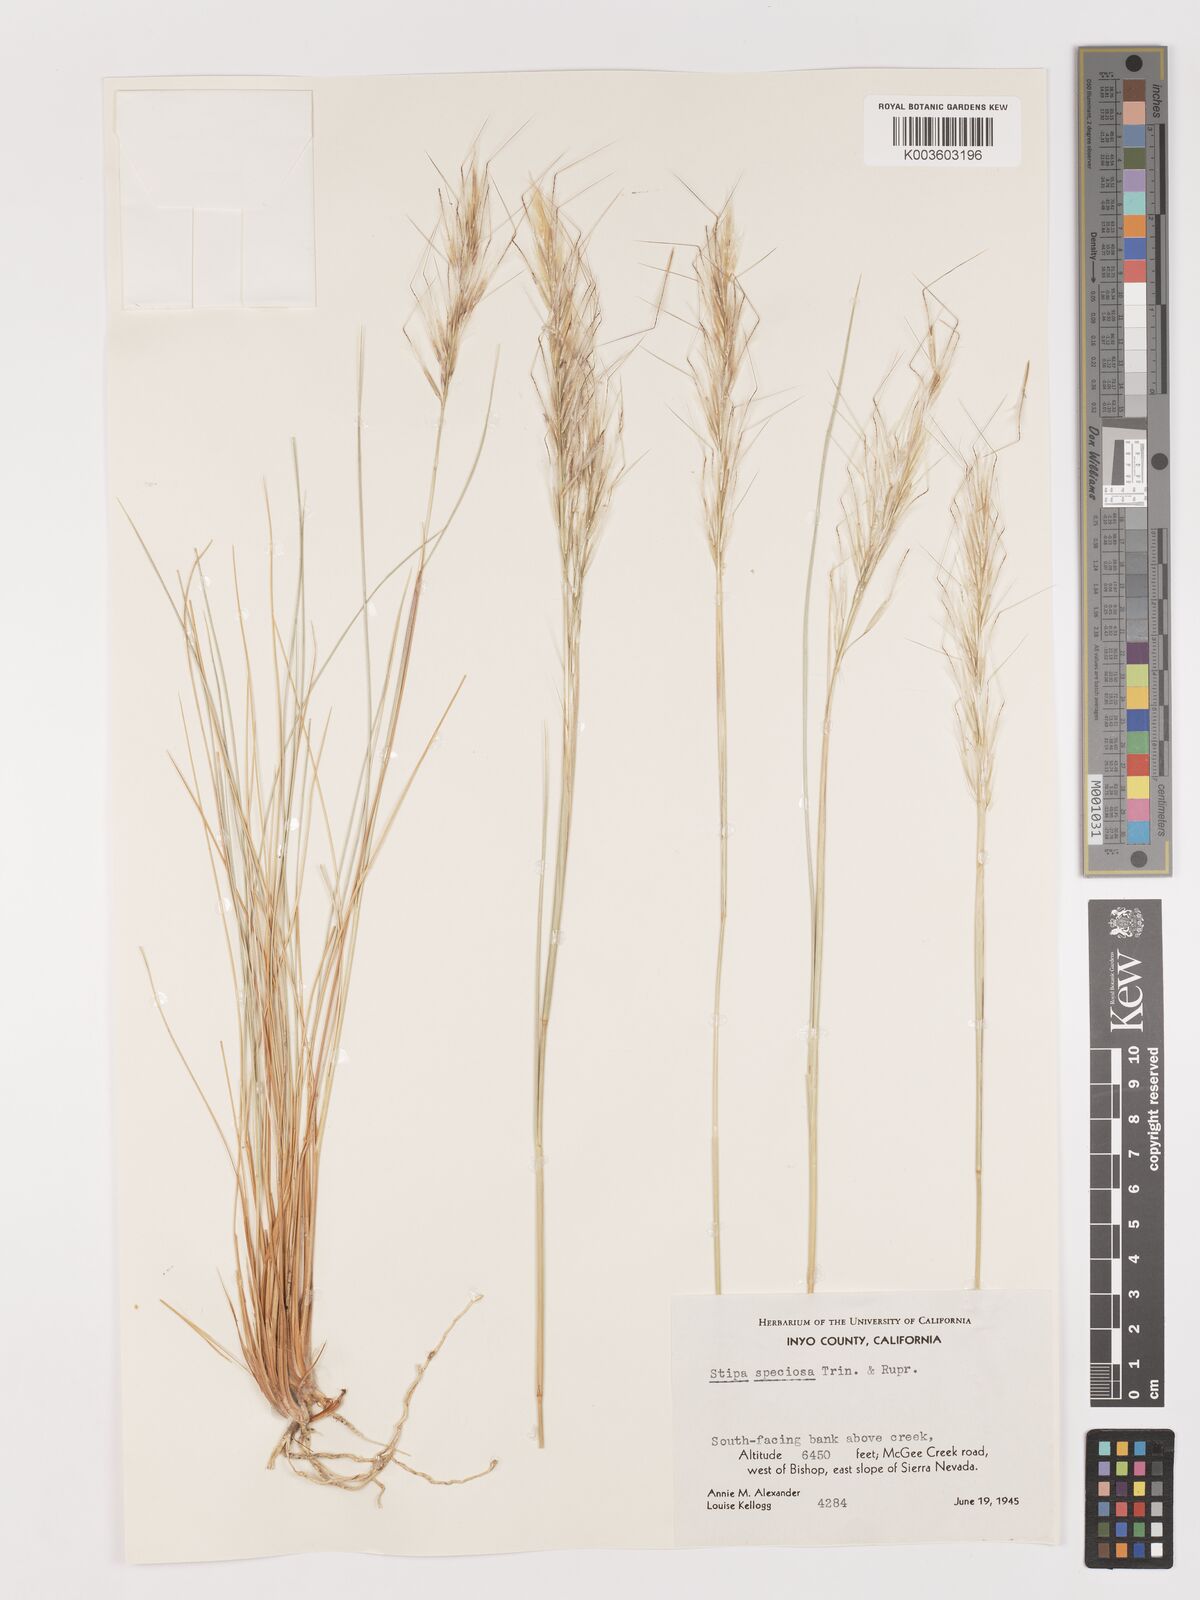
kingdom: Plantae
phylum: Tracheophyta
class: Liliopsida
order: Poales
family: Poaceae
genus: Pappostipa
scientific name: Pappostipa speciosa
